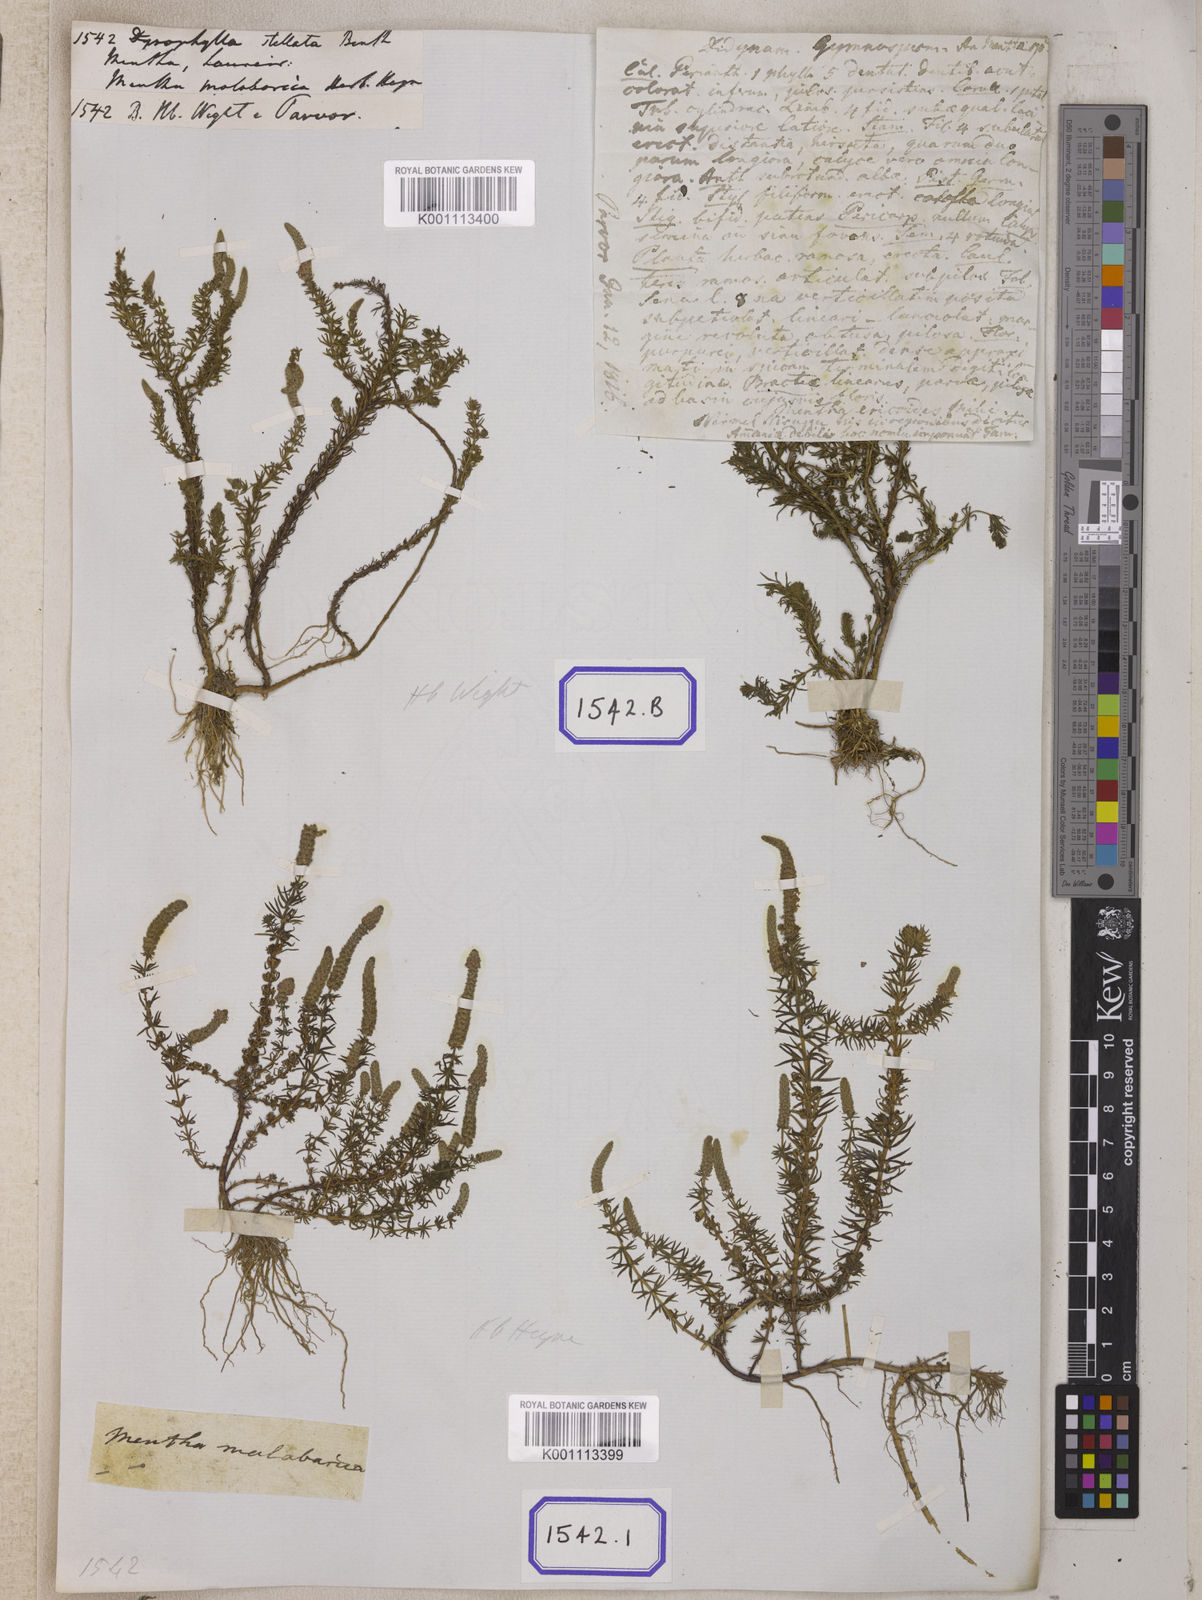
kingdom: Plantae
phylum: Tracheophyta
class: Magnoliopsida
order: Lamiales
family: Lamiaceae
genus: Pogostemon
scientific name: Pogostemon
